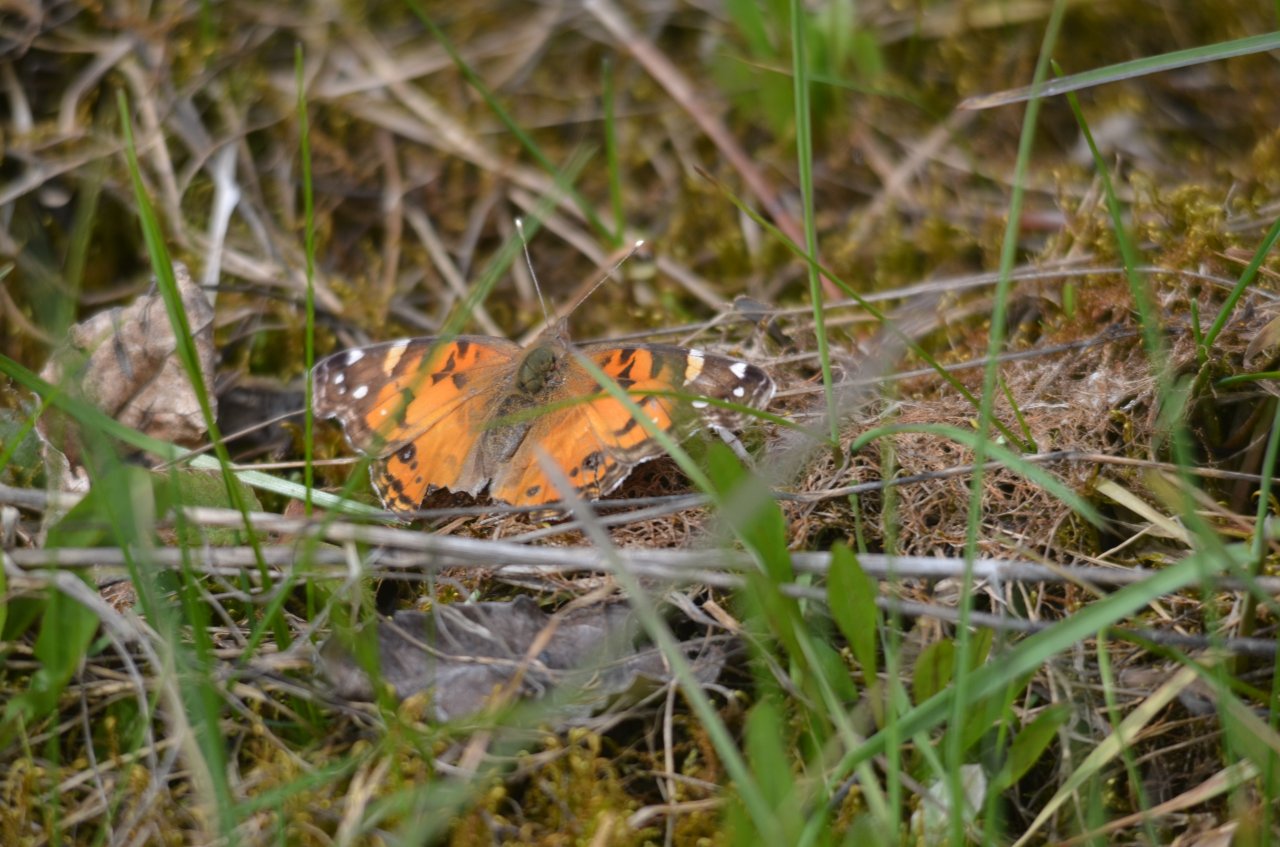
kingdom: Animalia
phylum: Arthropoda
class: Insecta
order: Lepidoptera
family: Nymphalidae
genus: Vanessa
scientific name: Vanessa virginiensis
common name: American Lady
